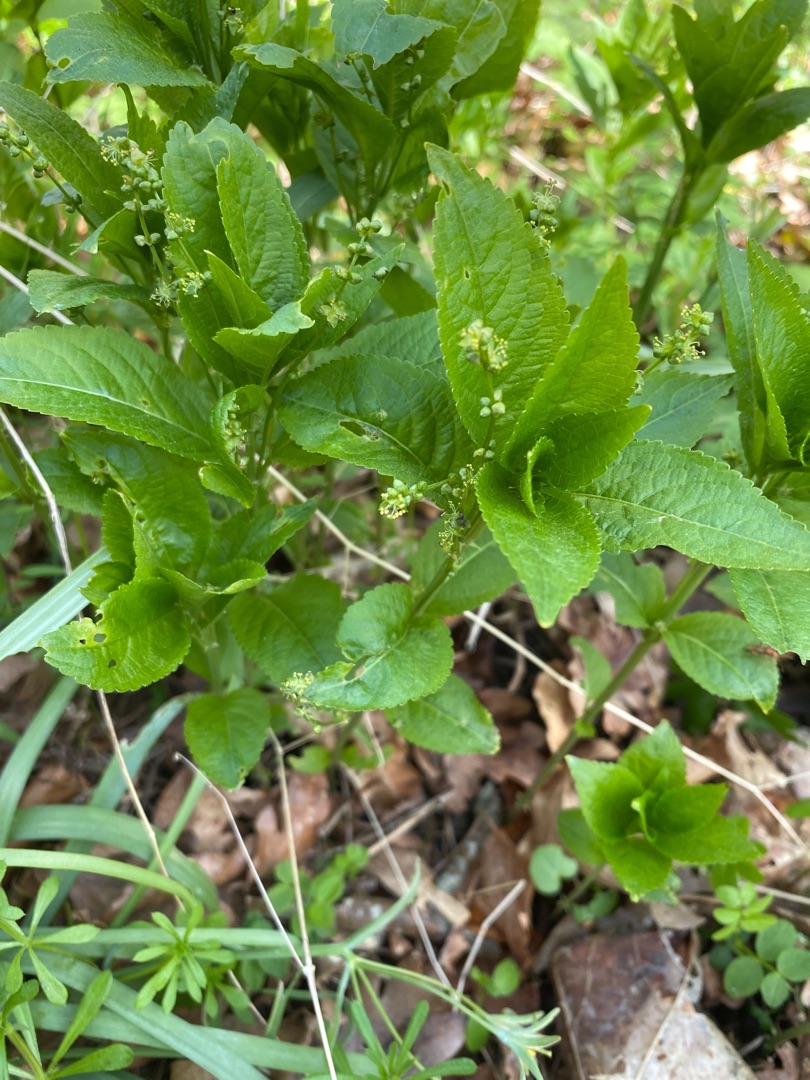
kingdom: Plantae
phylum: Tracheophyta
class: Magnoliopsida
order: Malpighiales
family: Euphorbiaceae
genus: Mercurialis
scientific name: Mercurialis perennis
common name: Almindelig bingelurt
